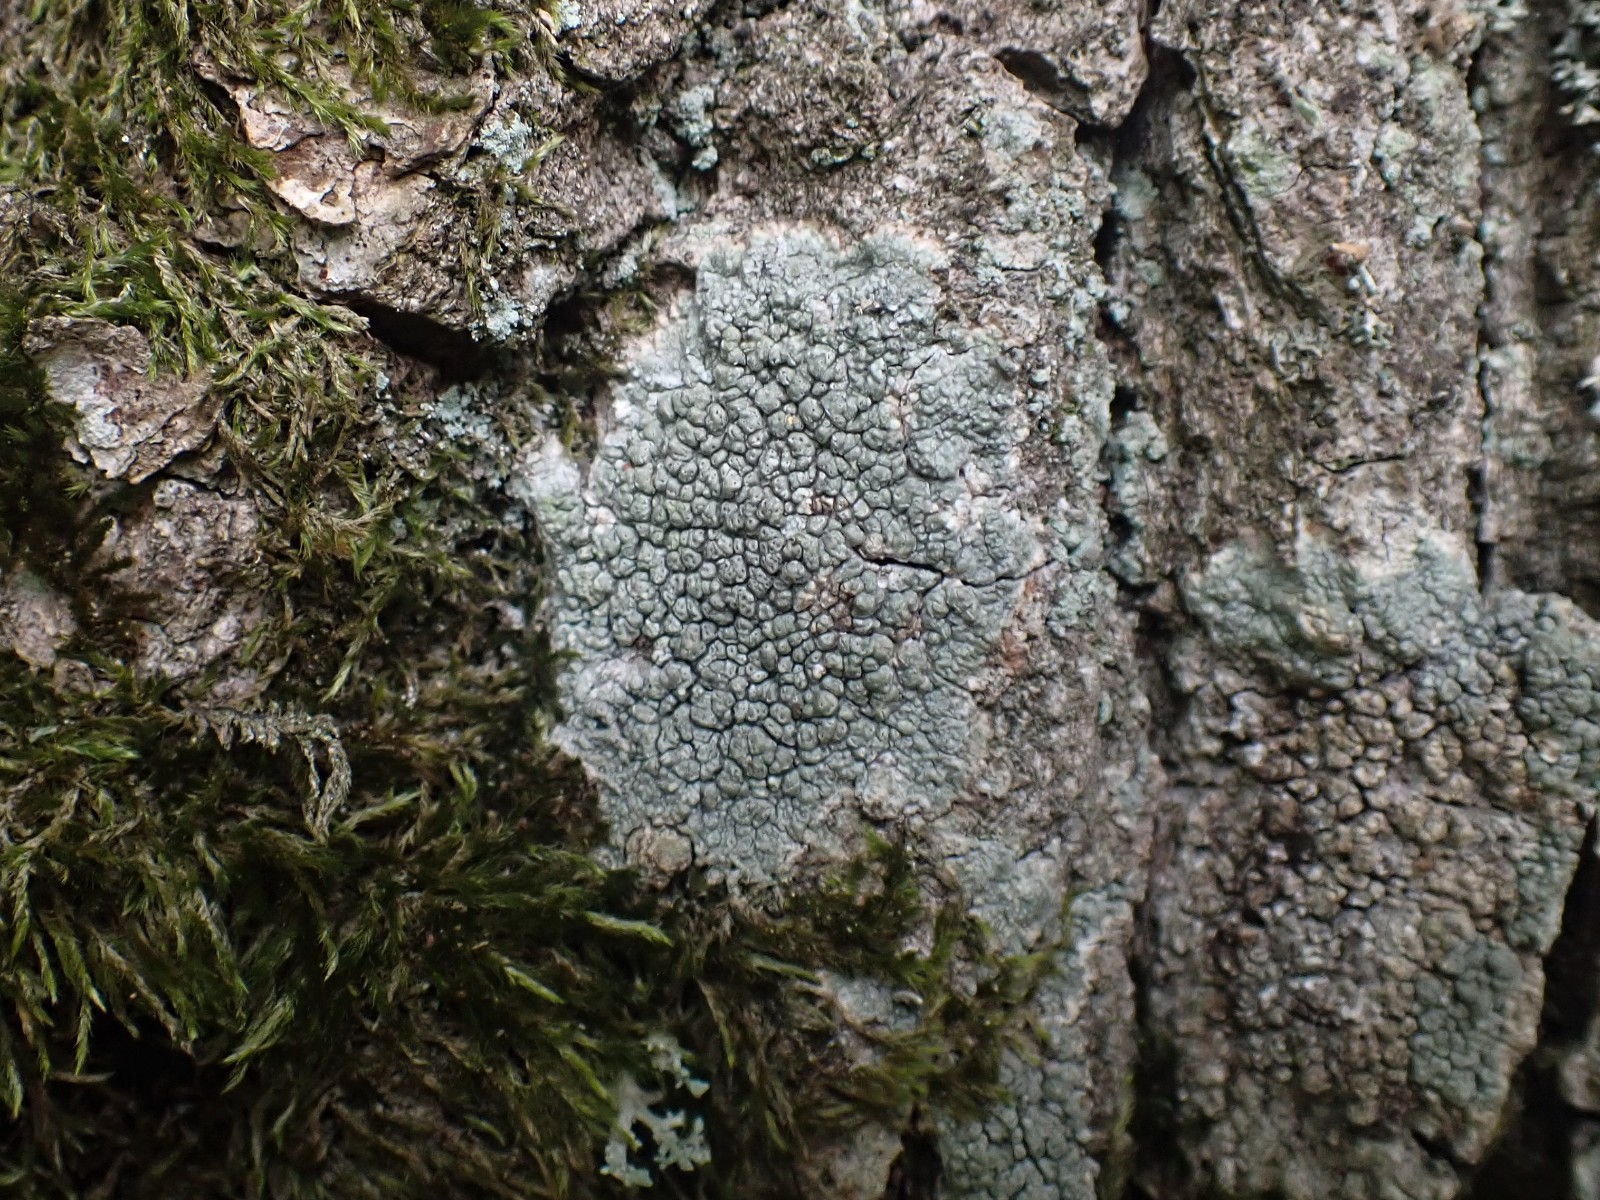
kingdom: Fungi
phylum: Ascomycota
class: Lecanoromycetes
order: Pertusariales
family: Pertusariaceae
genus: Pertusaria
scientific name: Pertusaria pertusa
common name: almindelig prikvortelav
